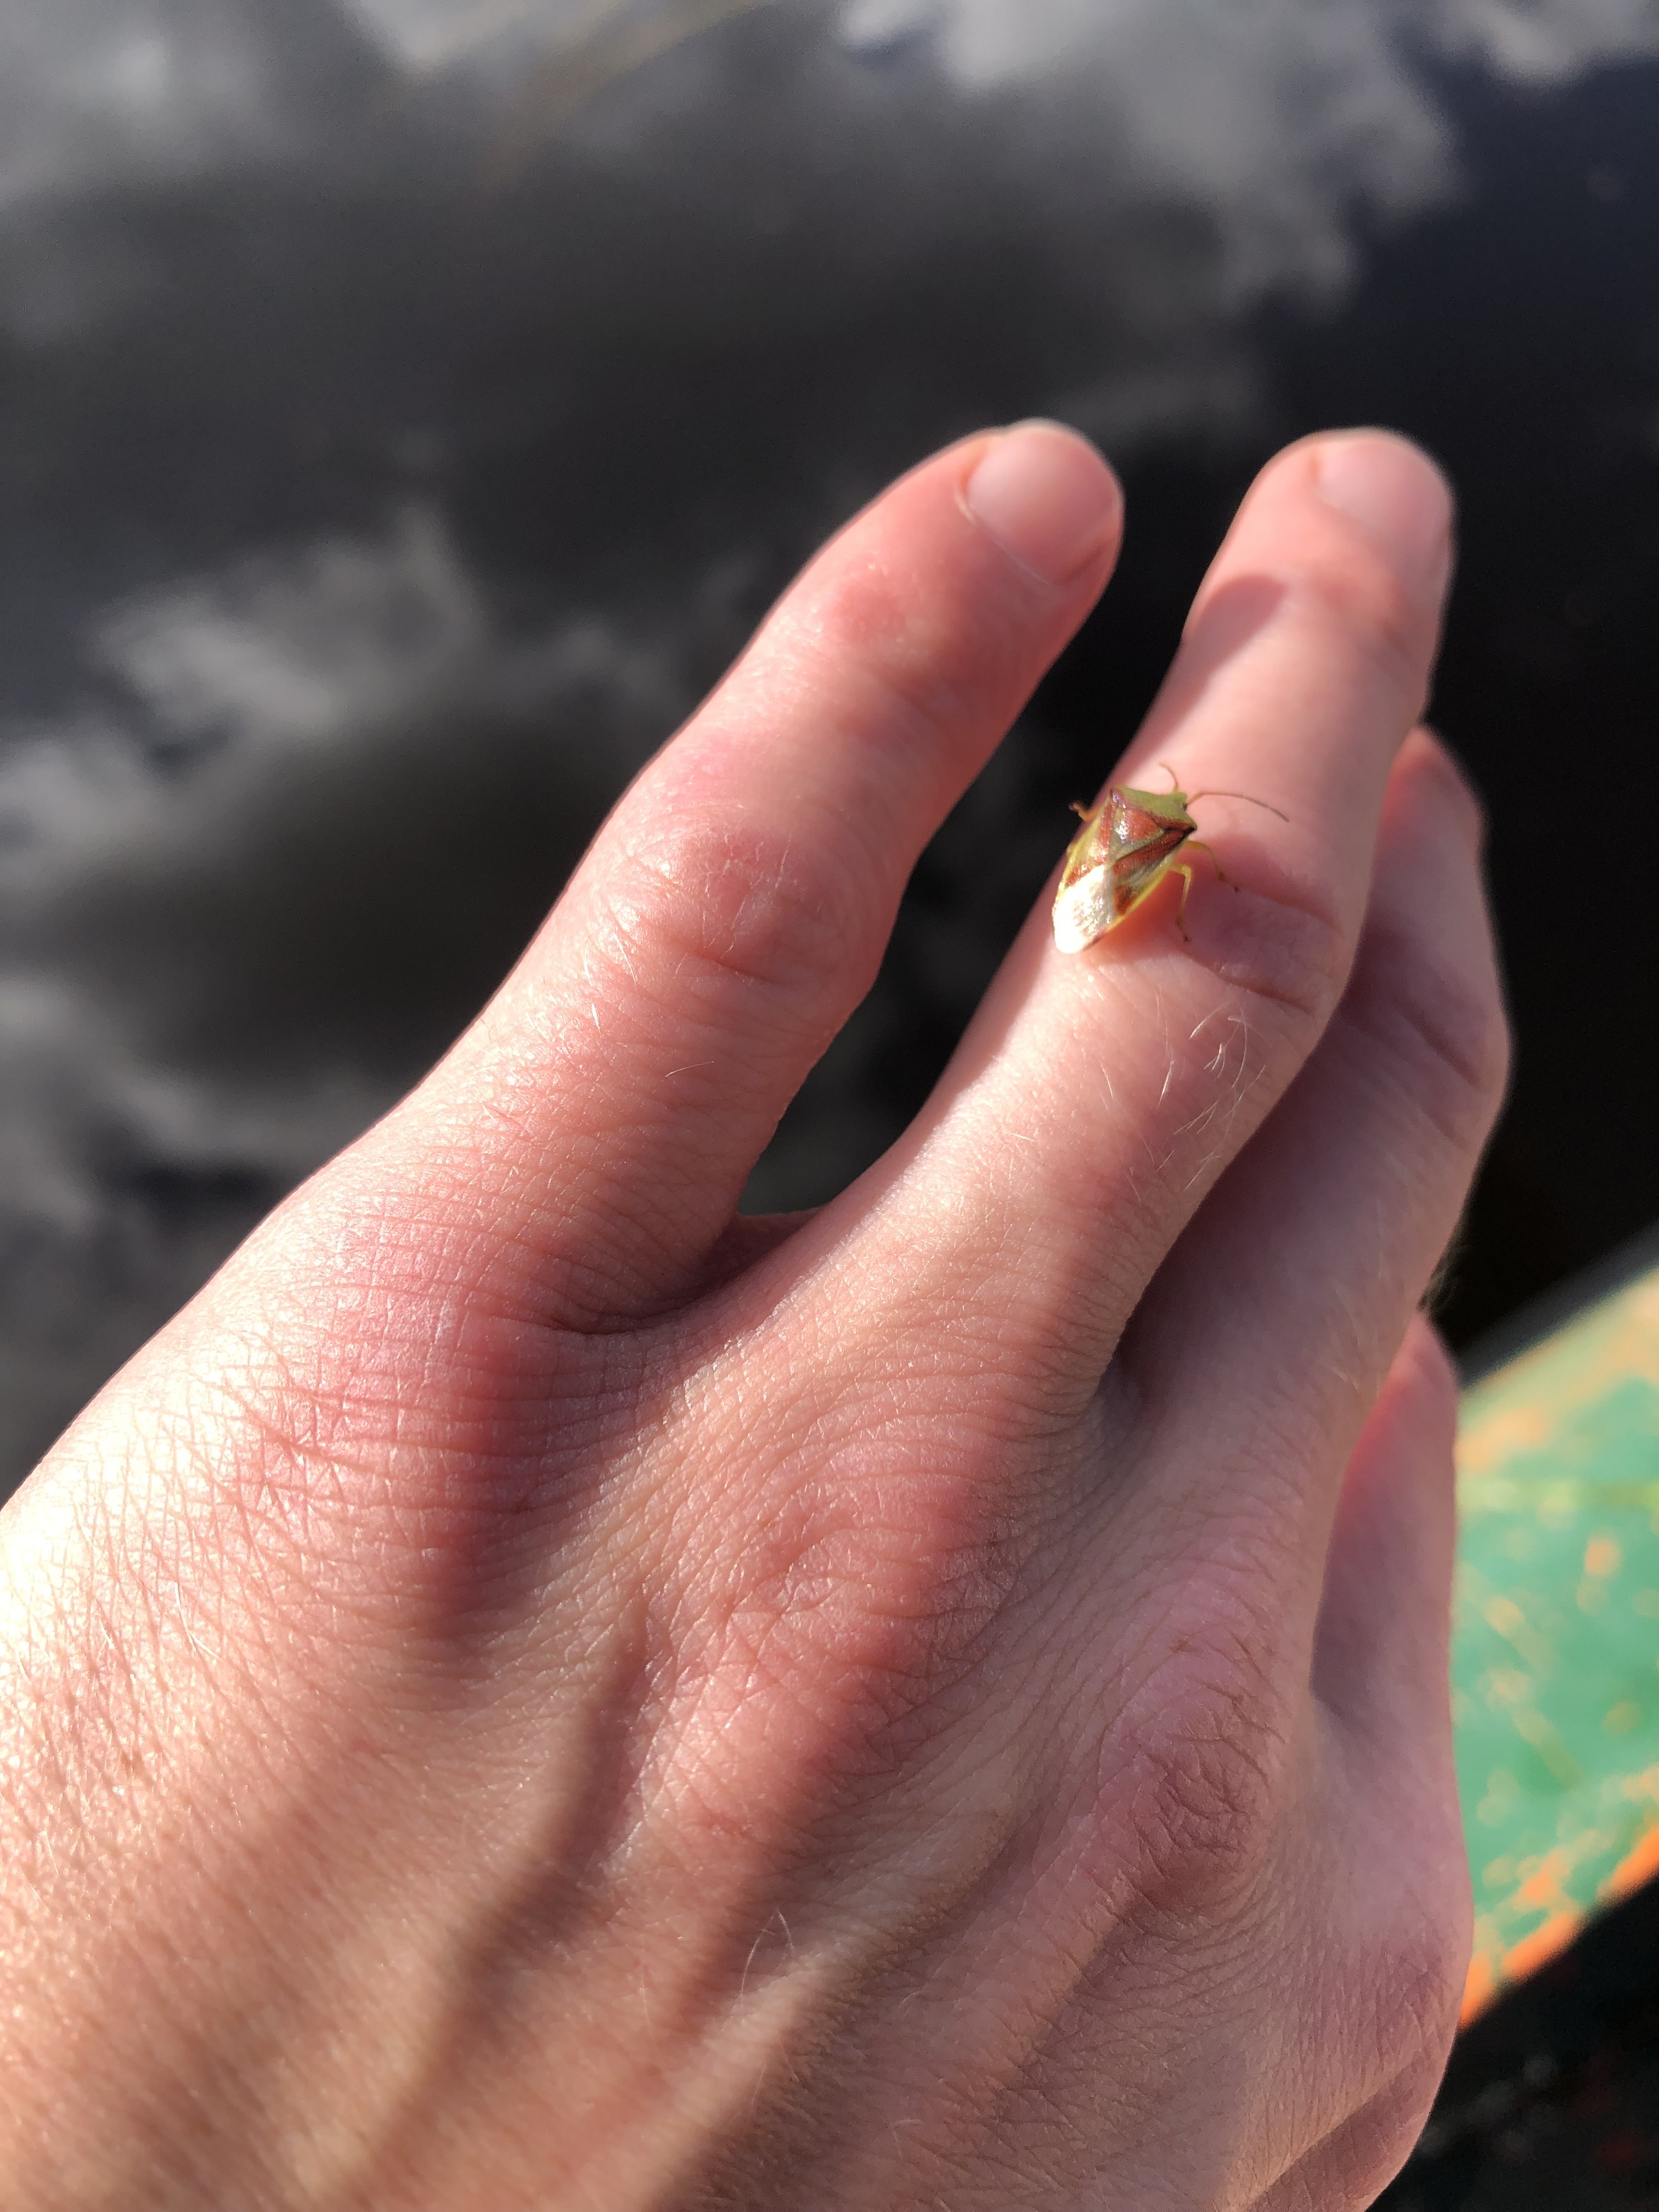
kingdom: Animalia
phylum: Arthropoda
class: Insecta
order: Hemiptera
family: Acanthosomatidae
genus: Cyphostethus
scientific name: Cyphostethus tristriatus
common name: Juniper shieldbug
